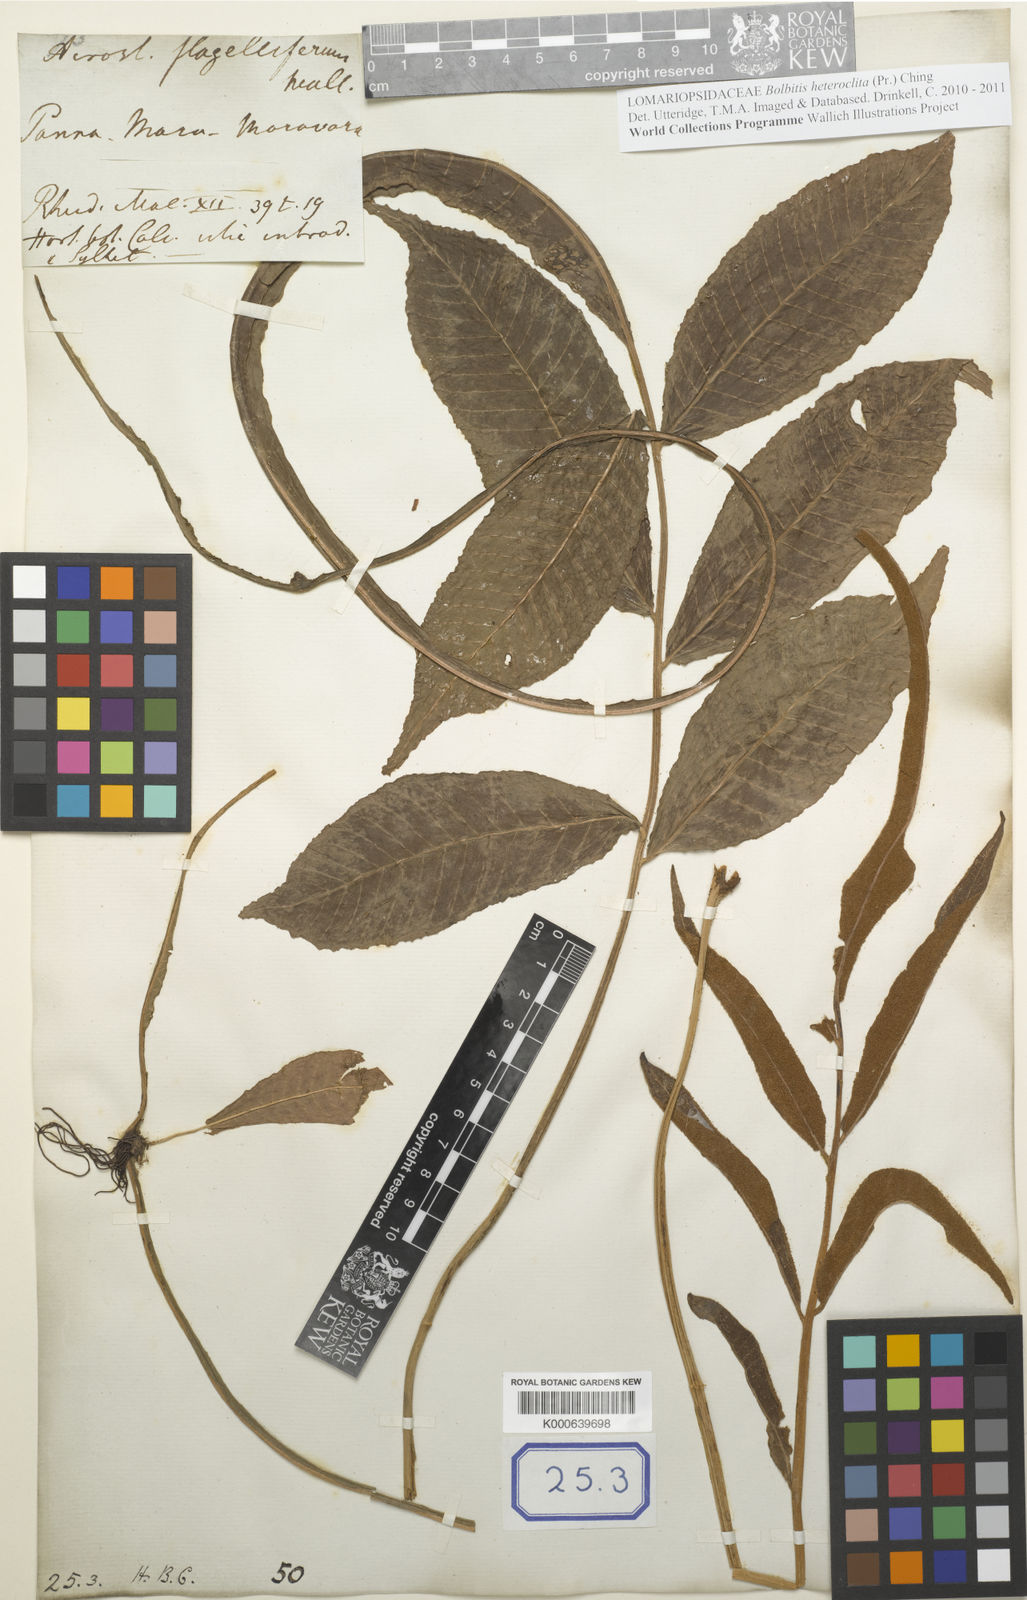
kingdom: Plantae
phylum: Tracheophyta
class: Polypodiopsida
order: Polypodiales
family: Dryopteridaceae
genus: Bolbitis
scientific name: Bolbitis heteroclita
